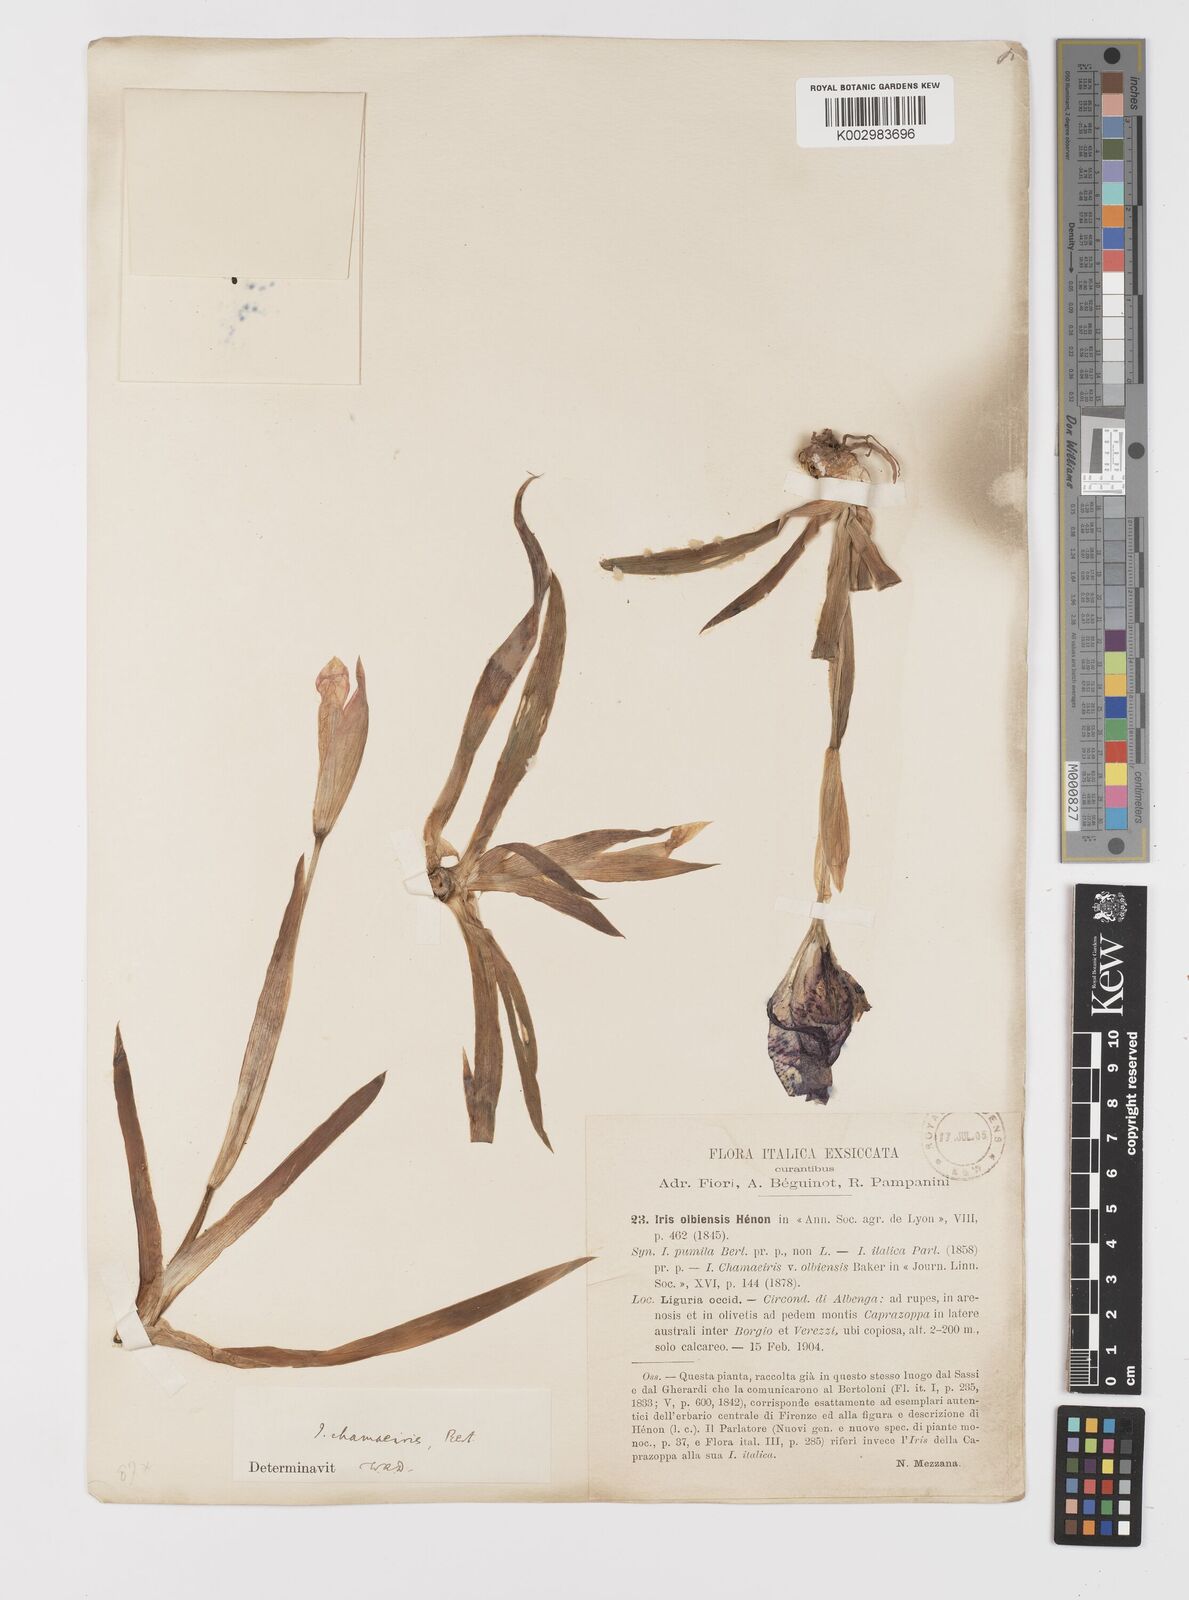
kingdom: Plantae
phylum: Tracheophyta
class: Liliopsida
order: Asparagales
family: Iridaceae
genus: Iris
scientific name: Iris lutescens
